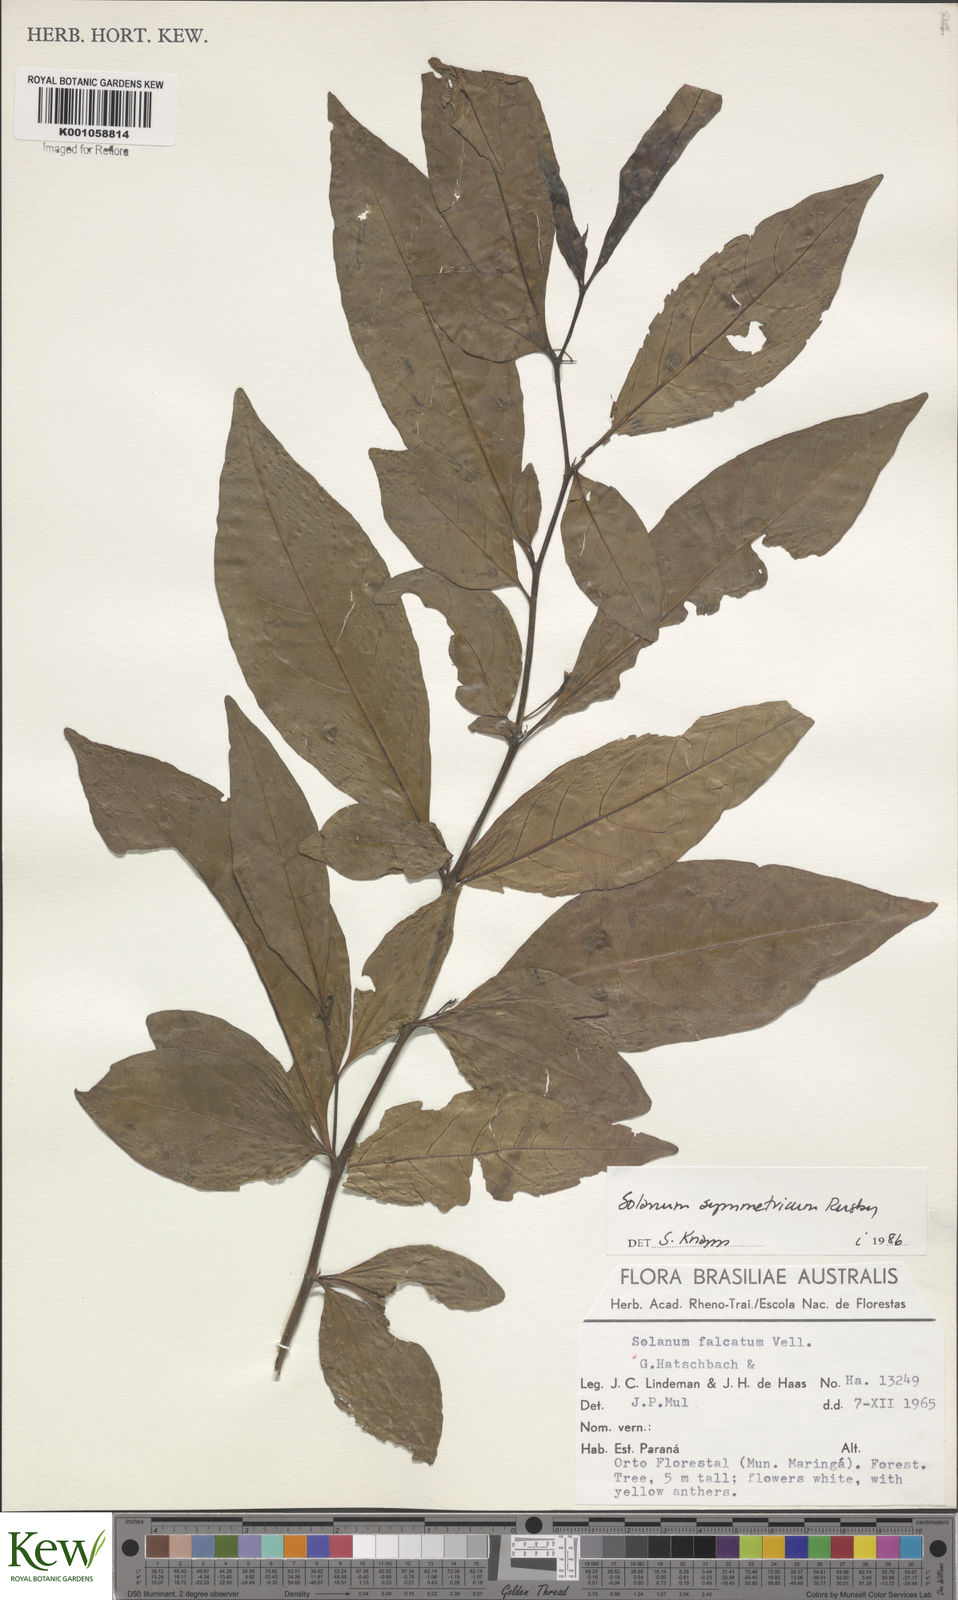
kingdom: Plantae
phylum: Tracheophyta
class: Magnoliopsida
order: Solanales
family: Solanaceae
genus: Solanum
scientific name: Solanum symmetricum
